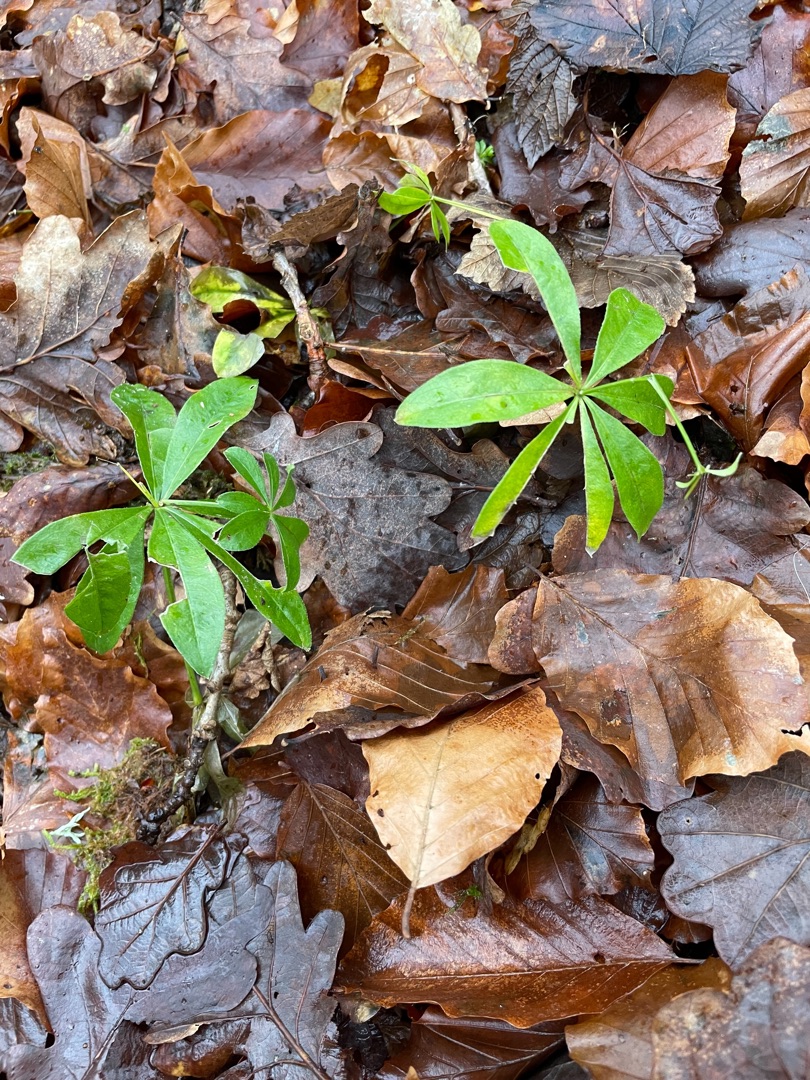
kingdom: Plantae
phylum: Tracheophyta
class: Magnoliopsida
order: Gentianales
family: Rubiaceae
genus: Galium
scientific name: Galium odoratum
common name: Skovmærke
